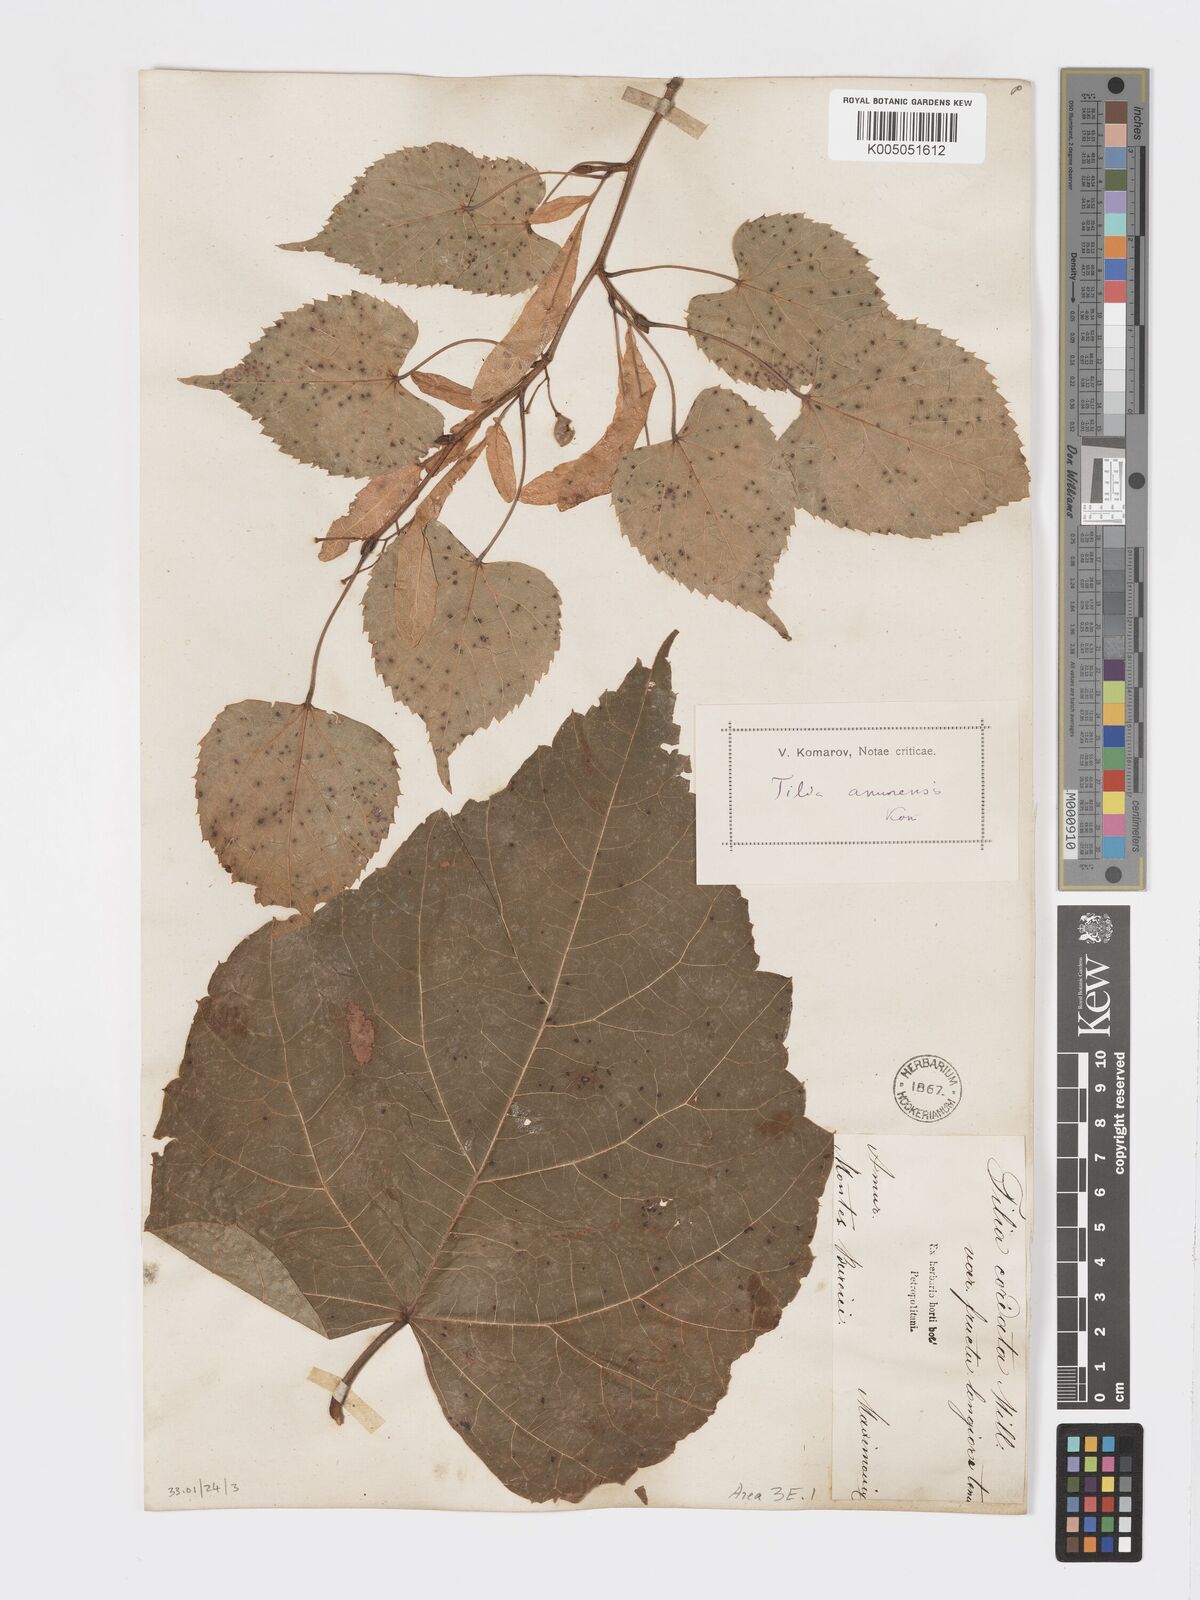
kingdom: Plantae
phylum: Tracheophyta
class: Magnoliopsida
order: Malvales
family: Malvaceae
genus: Tilia
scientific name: Tilia
